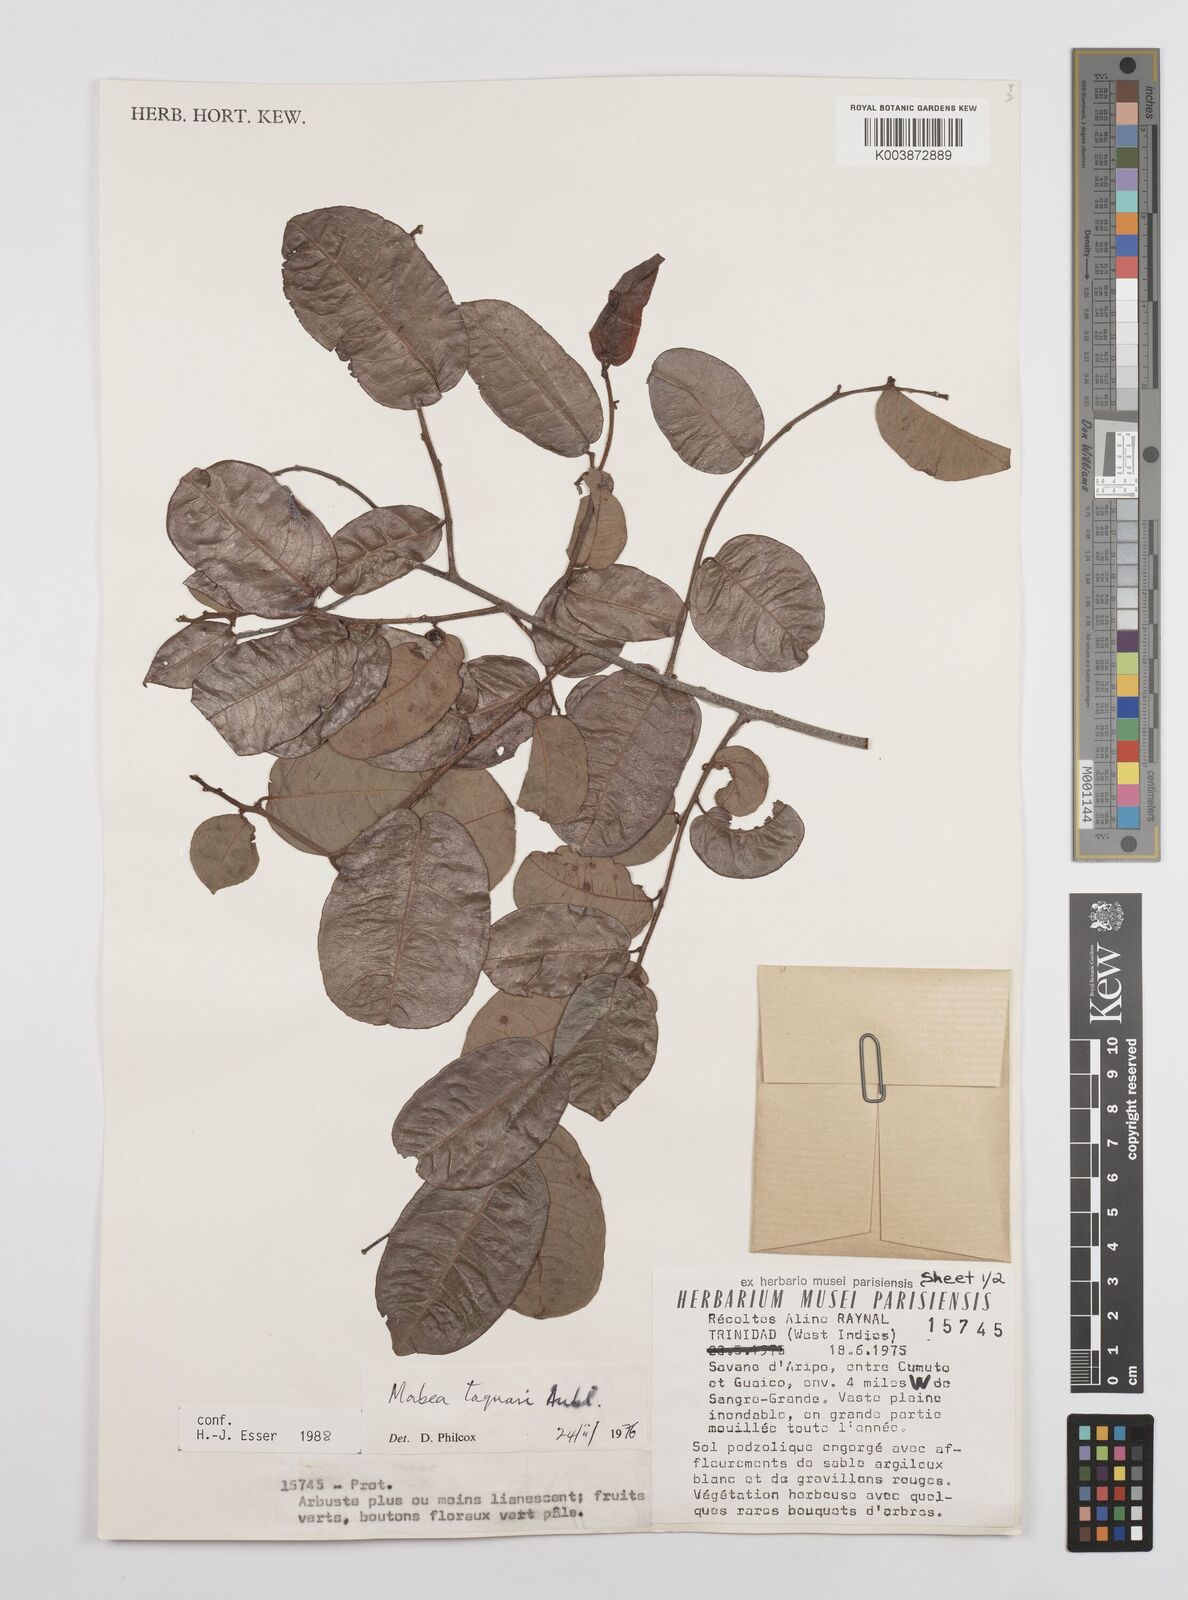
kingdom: Plantae
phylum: Tracheophyta
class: Magnoliopsida
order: Malpighiales
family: Euphorbiaceae
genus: Mabea
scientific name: Mabea taquari
